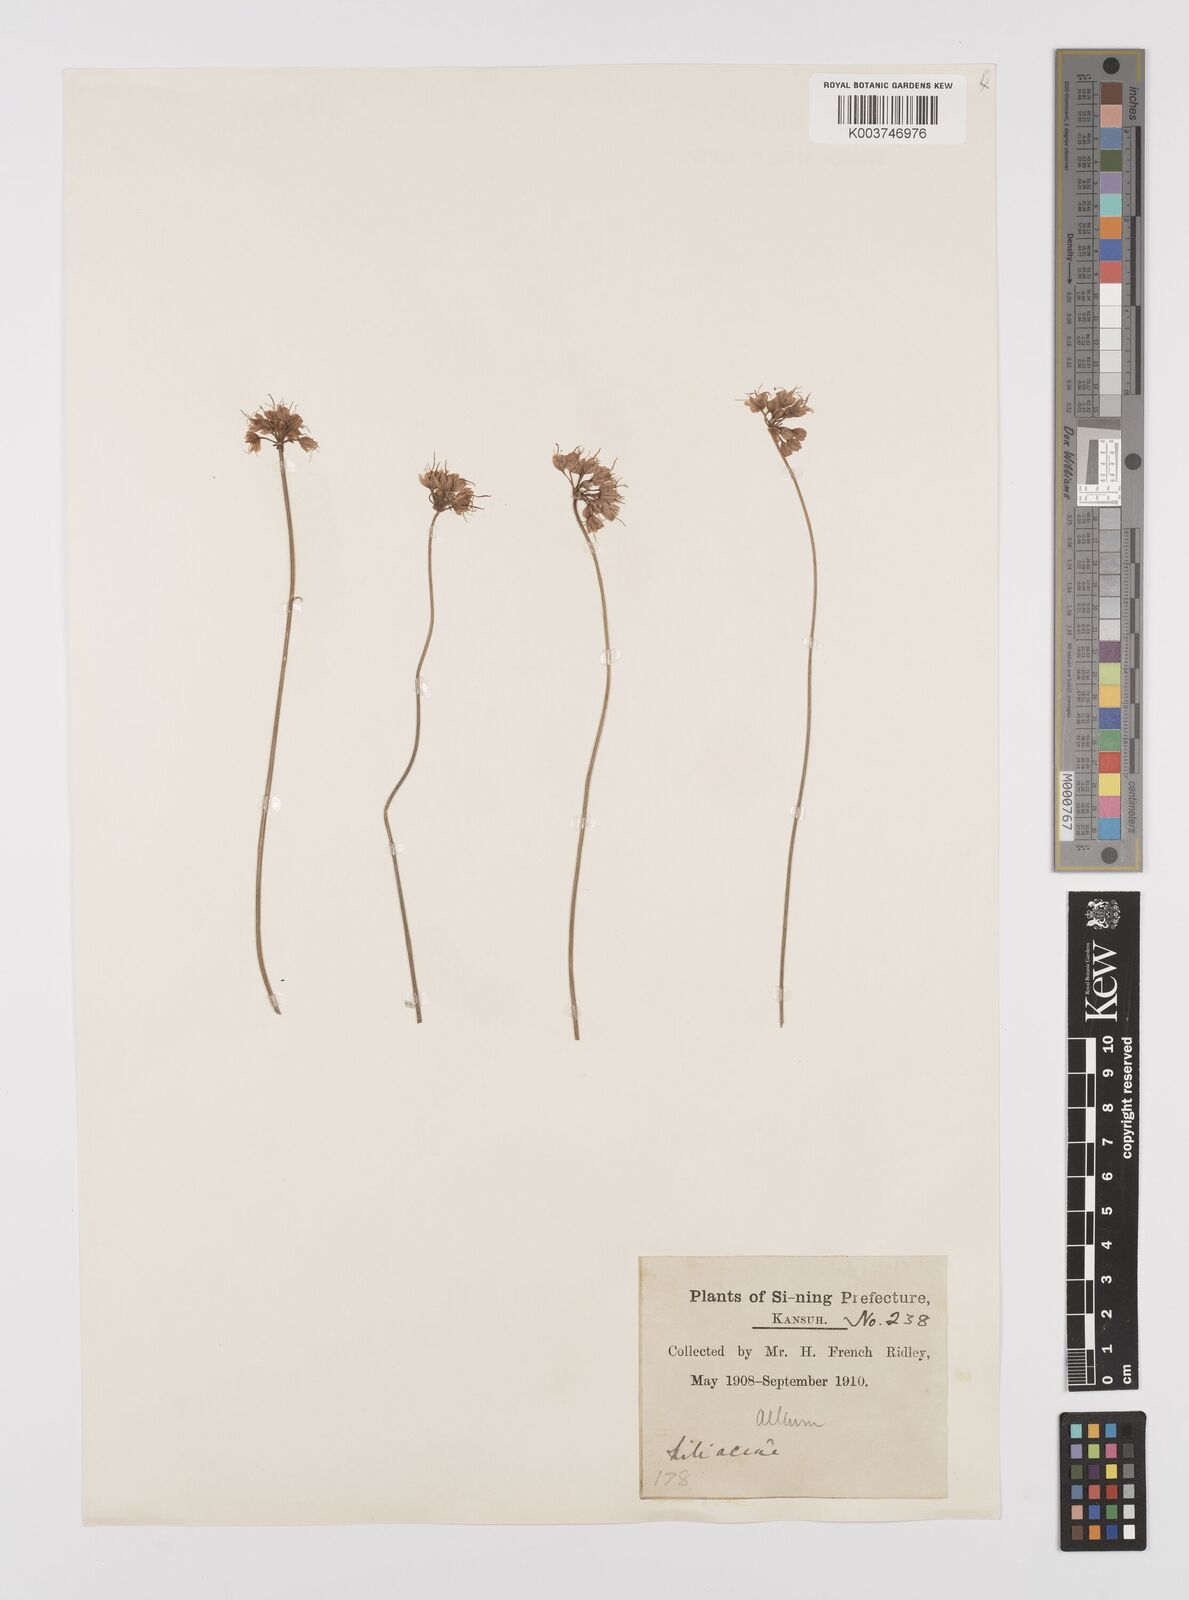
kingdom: Plantae
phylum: Tracheophyta
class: Liliopsida
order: Asparagales
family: Amaryllidaceae
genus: Allium
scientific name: Allium
